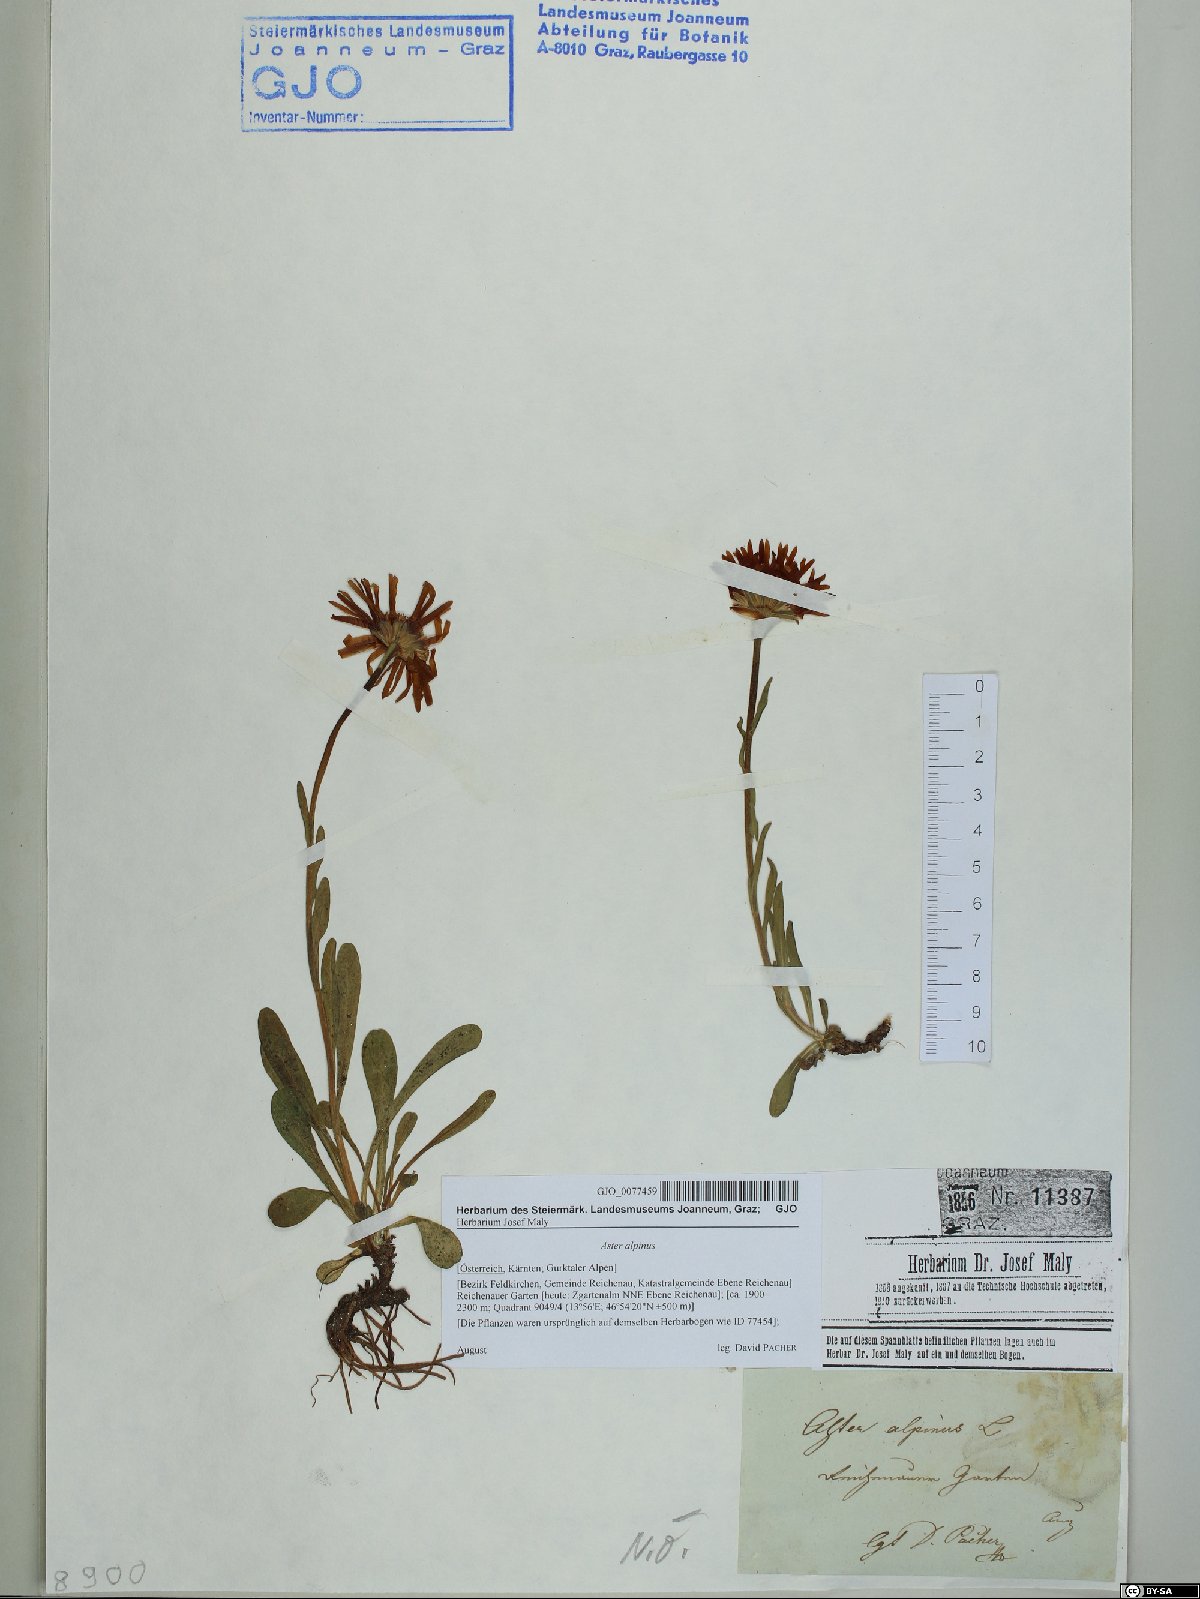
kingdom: Plantae
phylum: Tracheophyta
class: Magnoliopsida
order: Asterales
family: Asteraceae
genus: Aster
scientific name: Aster alpinus
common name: Alpine aster
